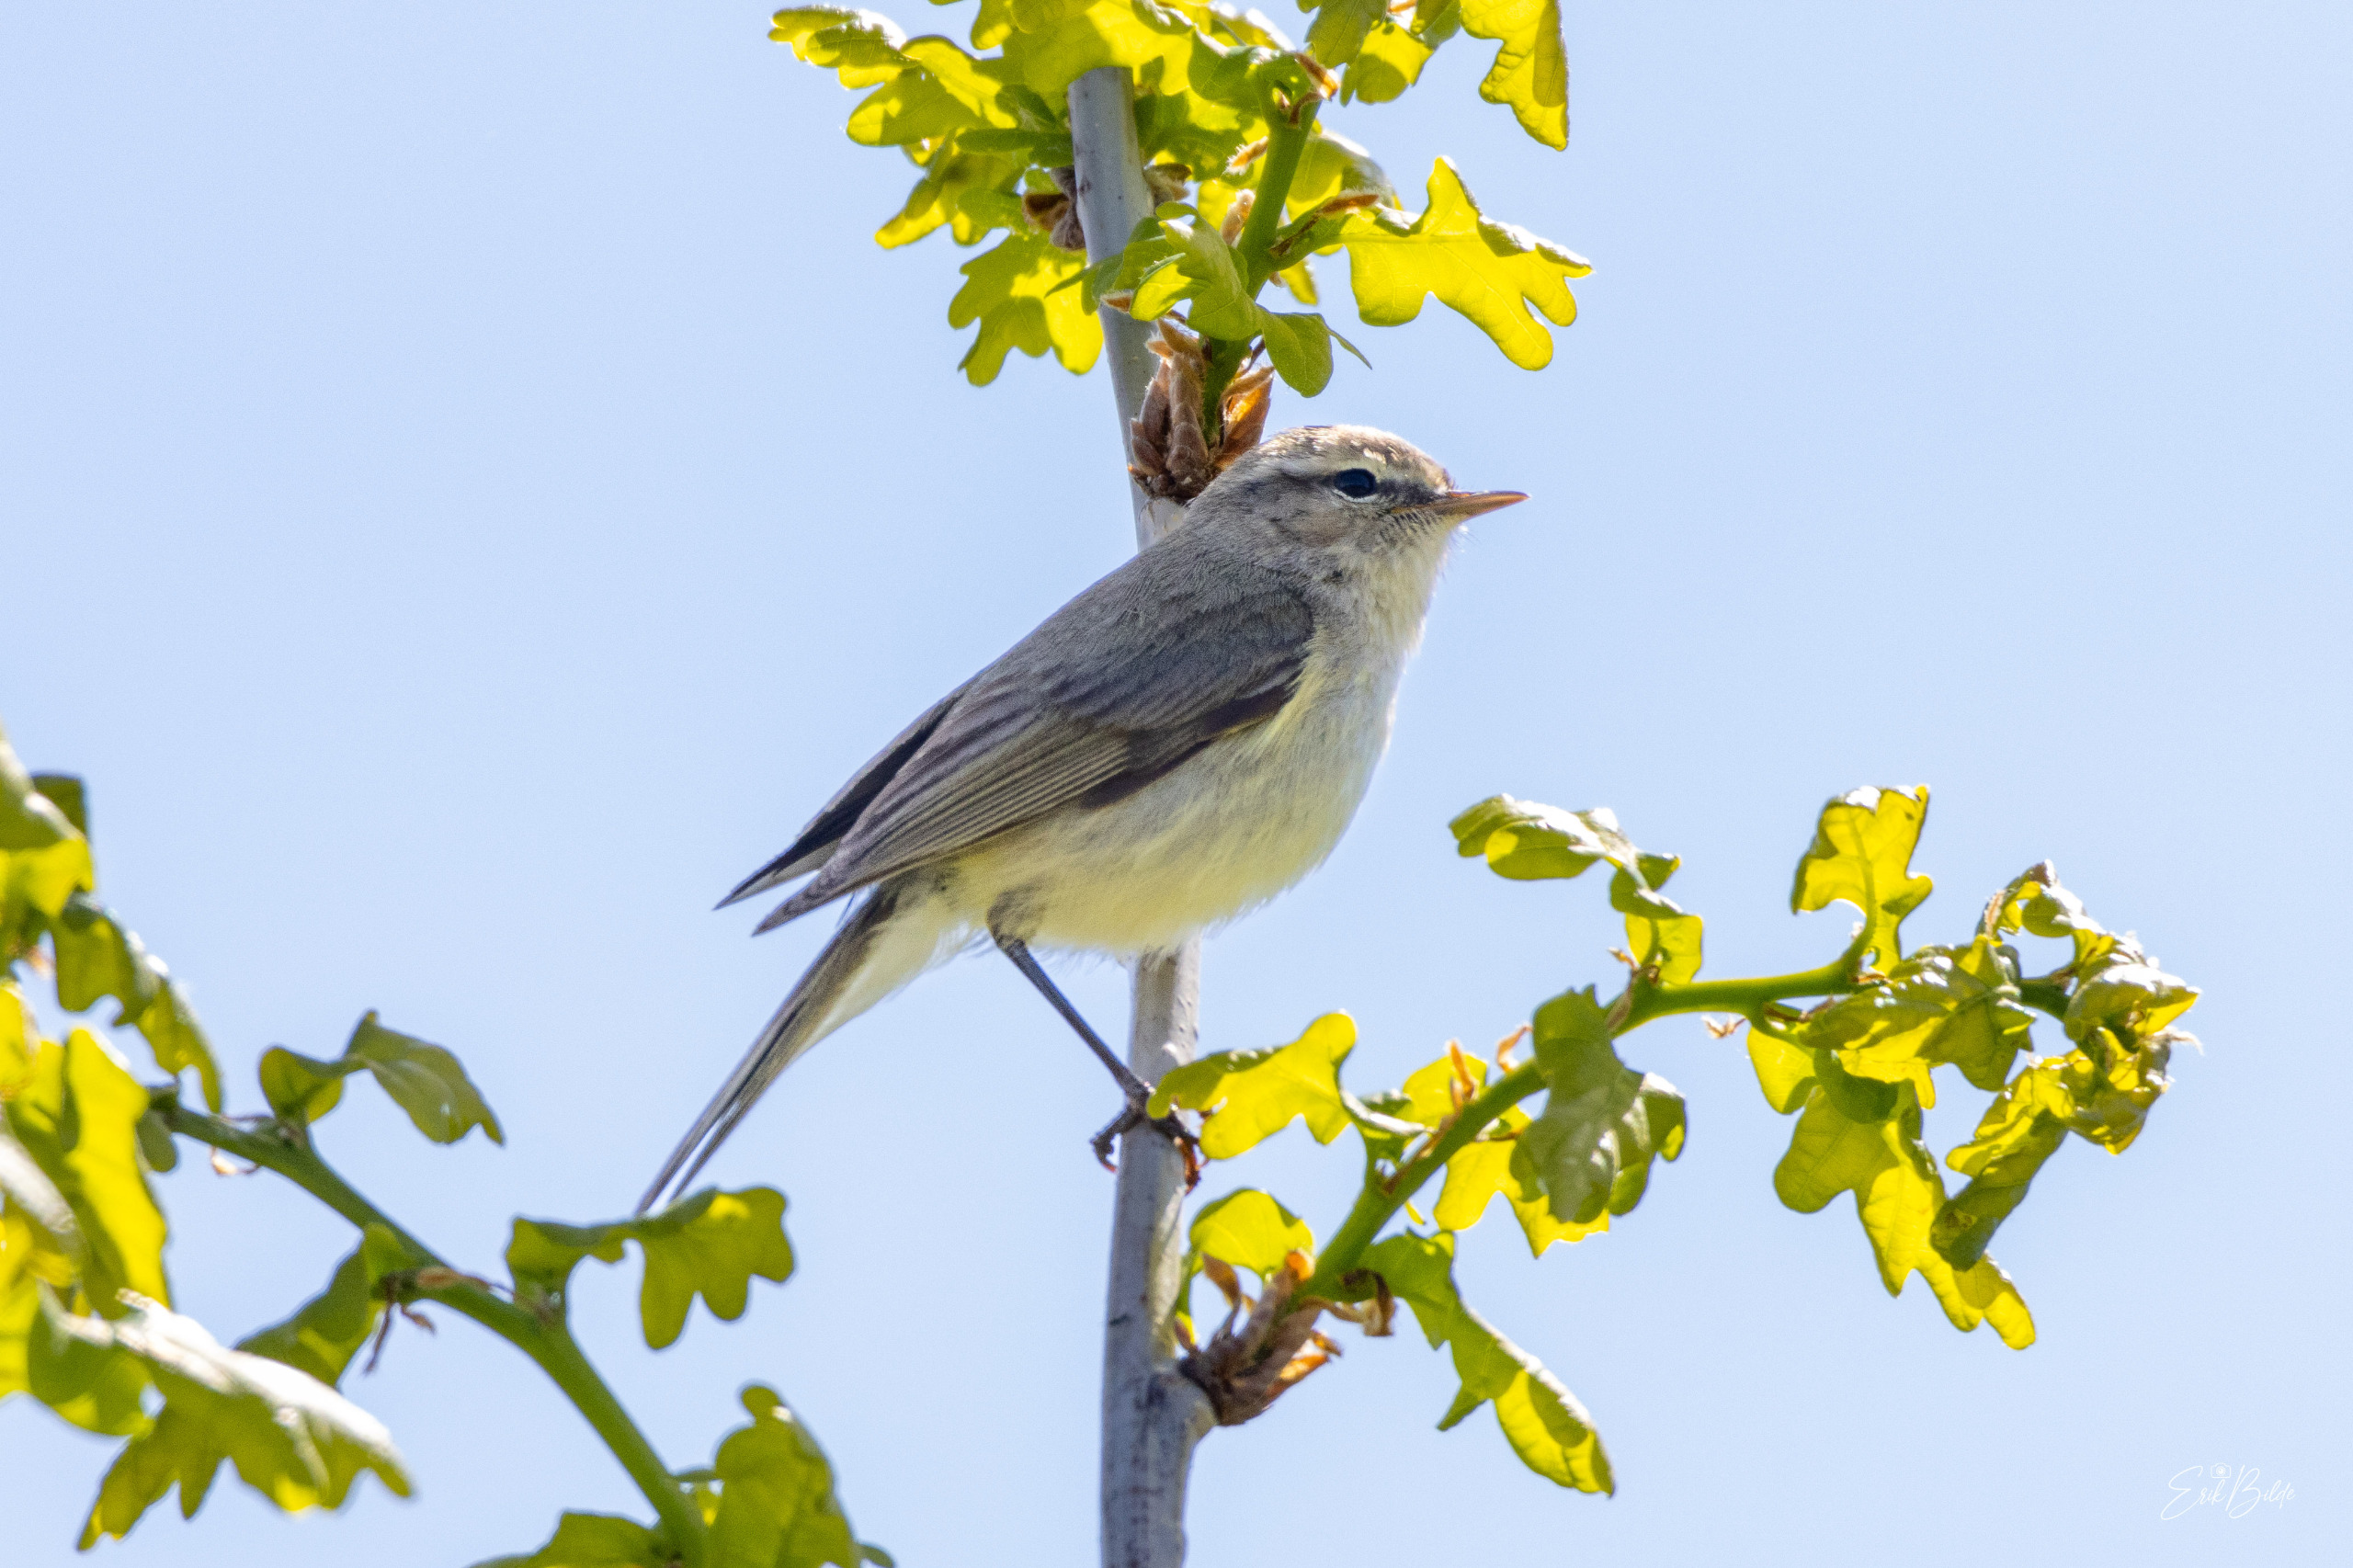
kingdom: Animalia
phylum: Chordata
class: Aves
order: Passeriformes
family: Phylloscopidae
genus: Phylloscopus
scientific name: Phylloscopus collybita
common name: Gransanger
